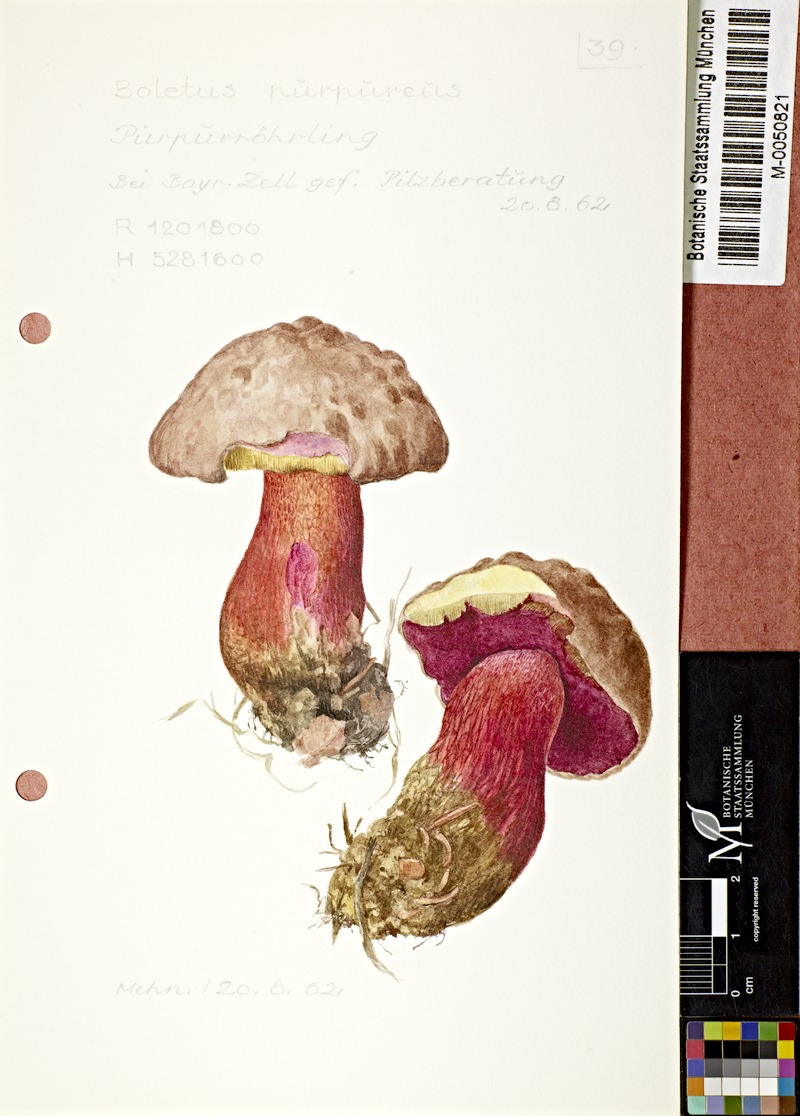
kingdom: Fungi
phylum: Basidiomycota
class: Agaricomycetes
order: Boletales
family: Boletaceae
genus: Boletus
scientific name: Boletus purpureus
